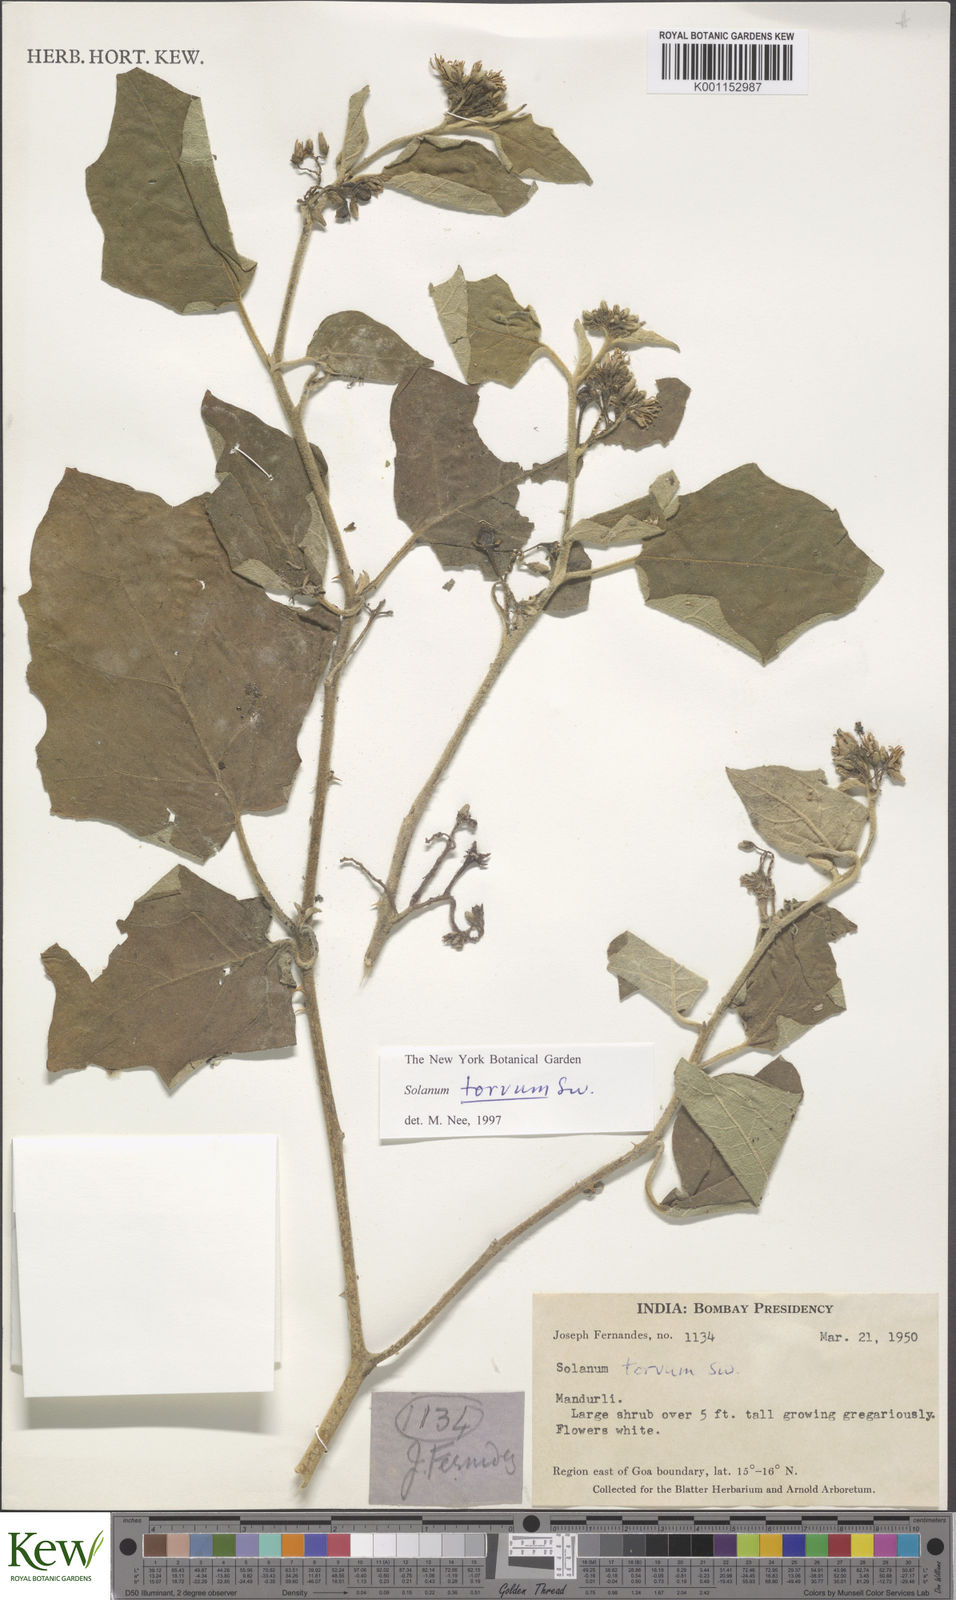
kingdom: Plantae
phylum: Tracheophyta
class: Magnoliopsida
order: Solanales
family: Solanaceae
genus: Solanum
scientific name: Solanum torvum
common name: Turkey berry
